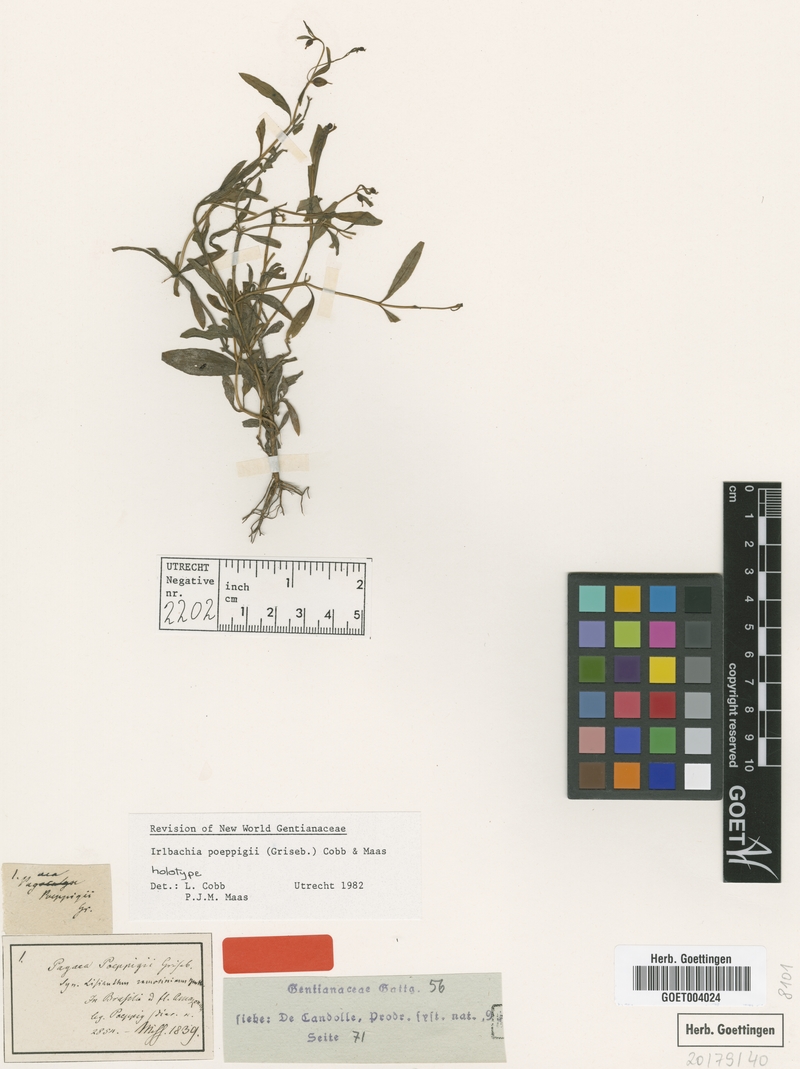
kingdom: Plantae
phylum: Tracheophyta
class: Magnoliopsida
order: Gentianales
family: Gentianaceae
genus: Irlbachia
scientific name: Irlbachia poeppigii
